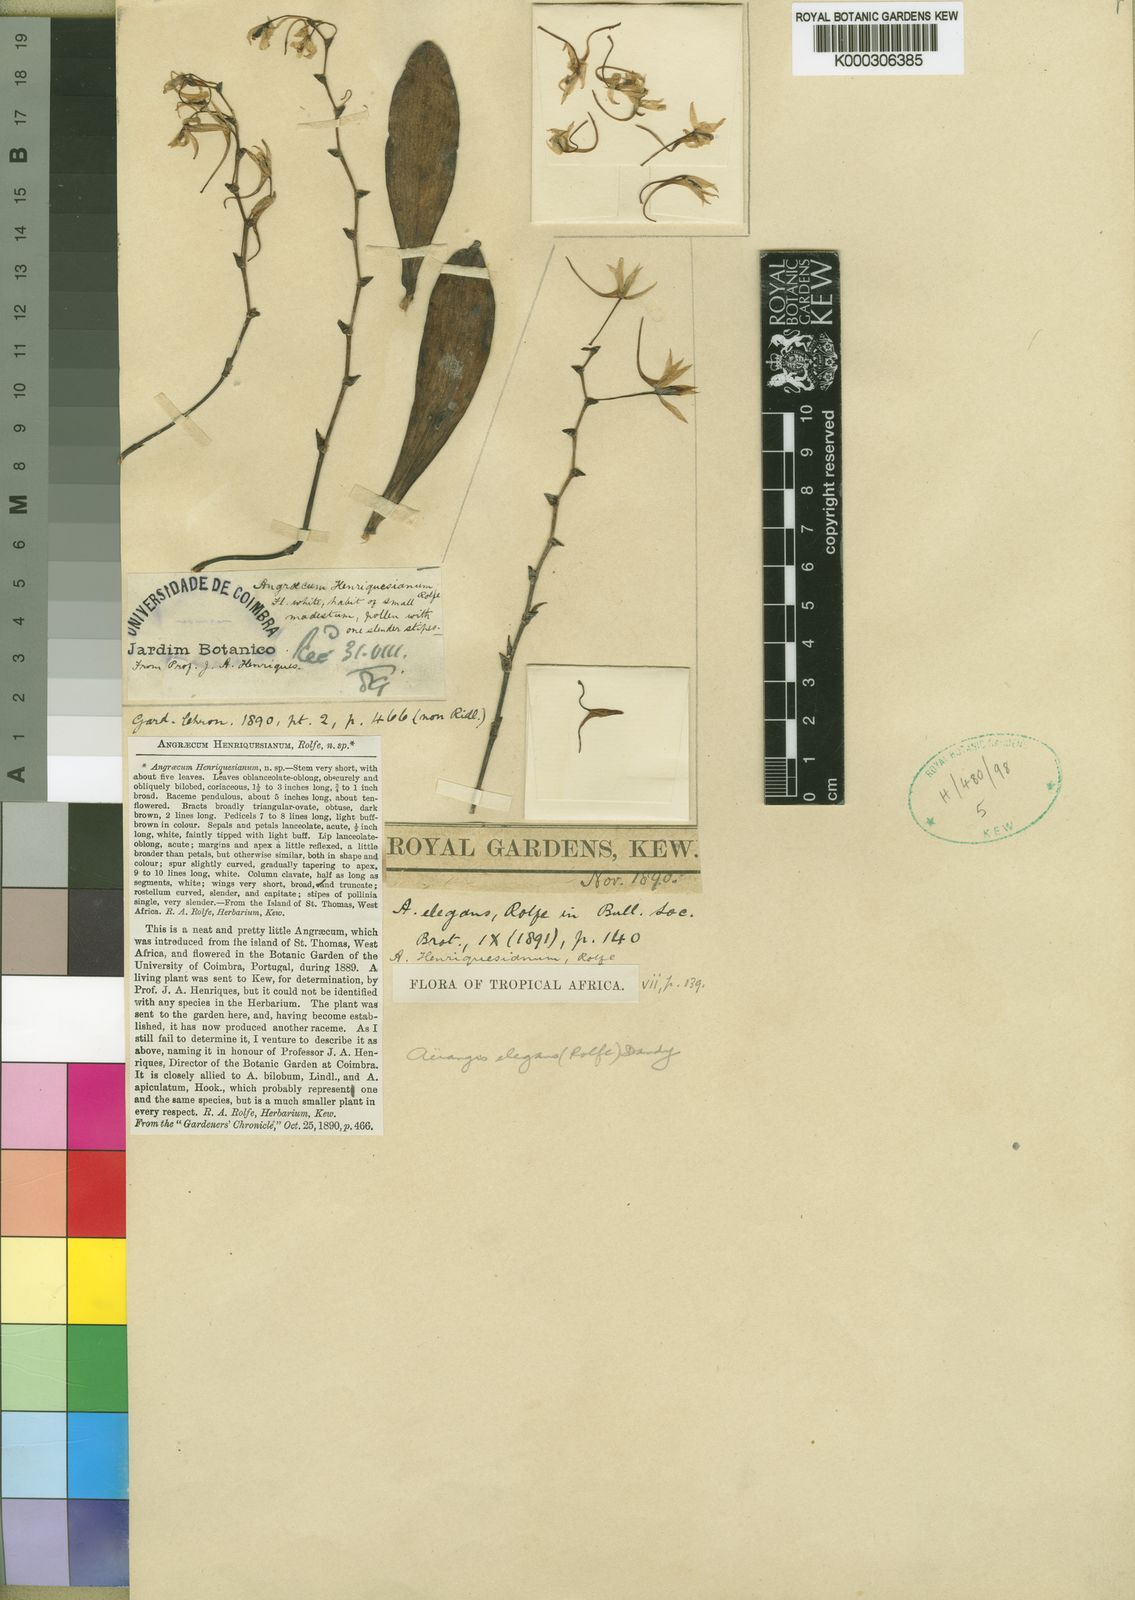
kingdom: Plantae
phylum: Tracheophyta
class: Liliopsida
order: Asparagales
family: Orchidaceae
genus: Aerangis
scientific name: Aerangis flexuosa
